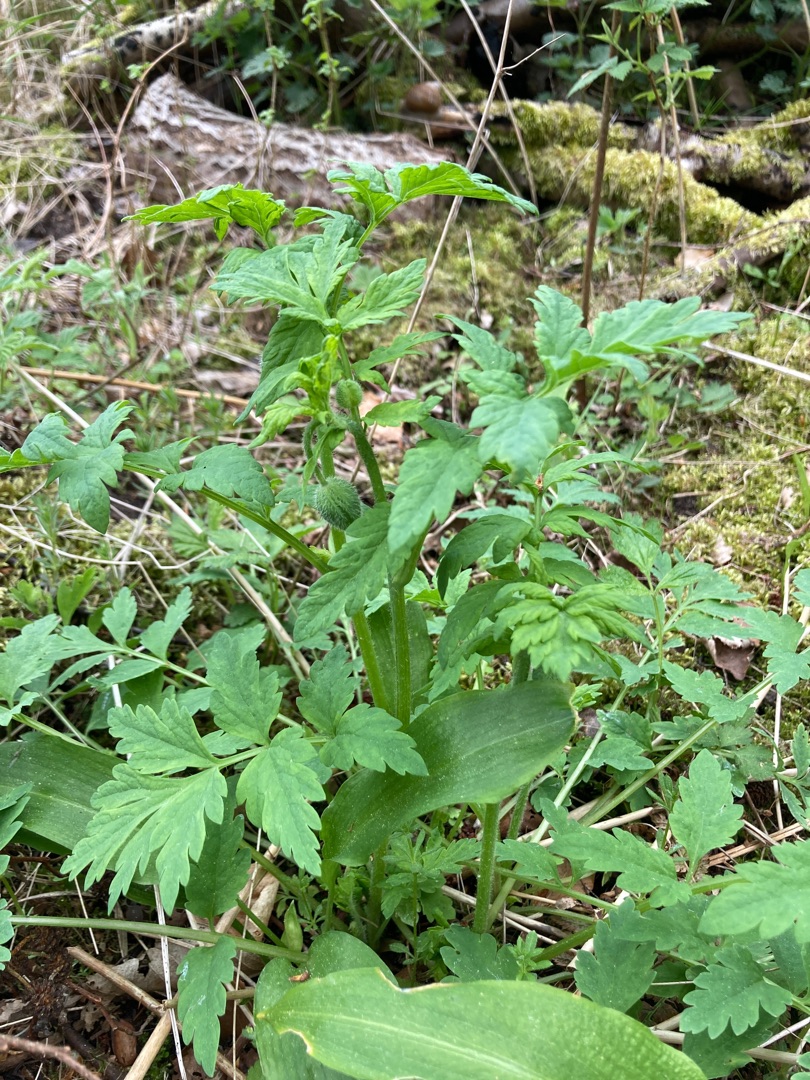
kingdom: Plantae
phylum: Tracheophyta
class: Magnoliopsida
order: Ranunculales
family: Papaveraceae
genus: Papaver
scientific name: Papaver cambricum
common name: Skov-valmue
